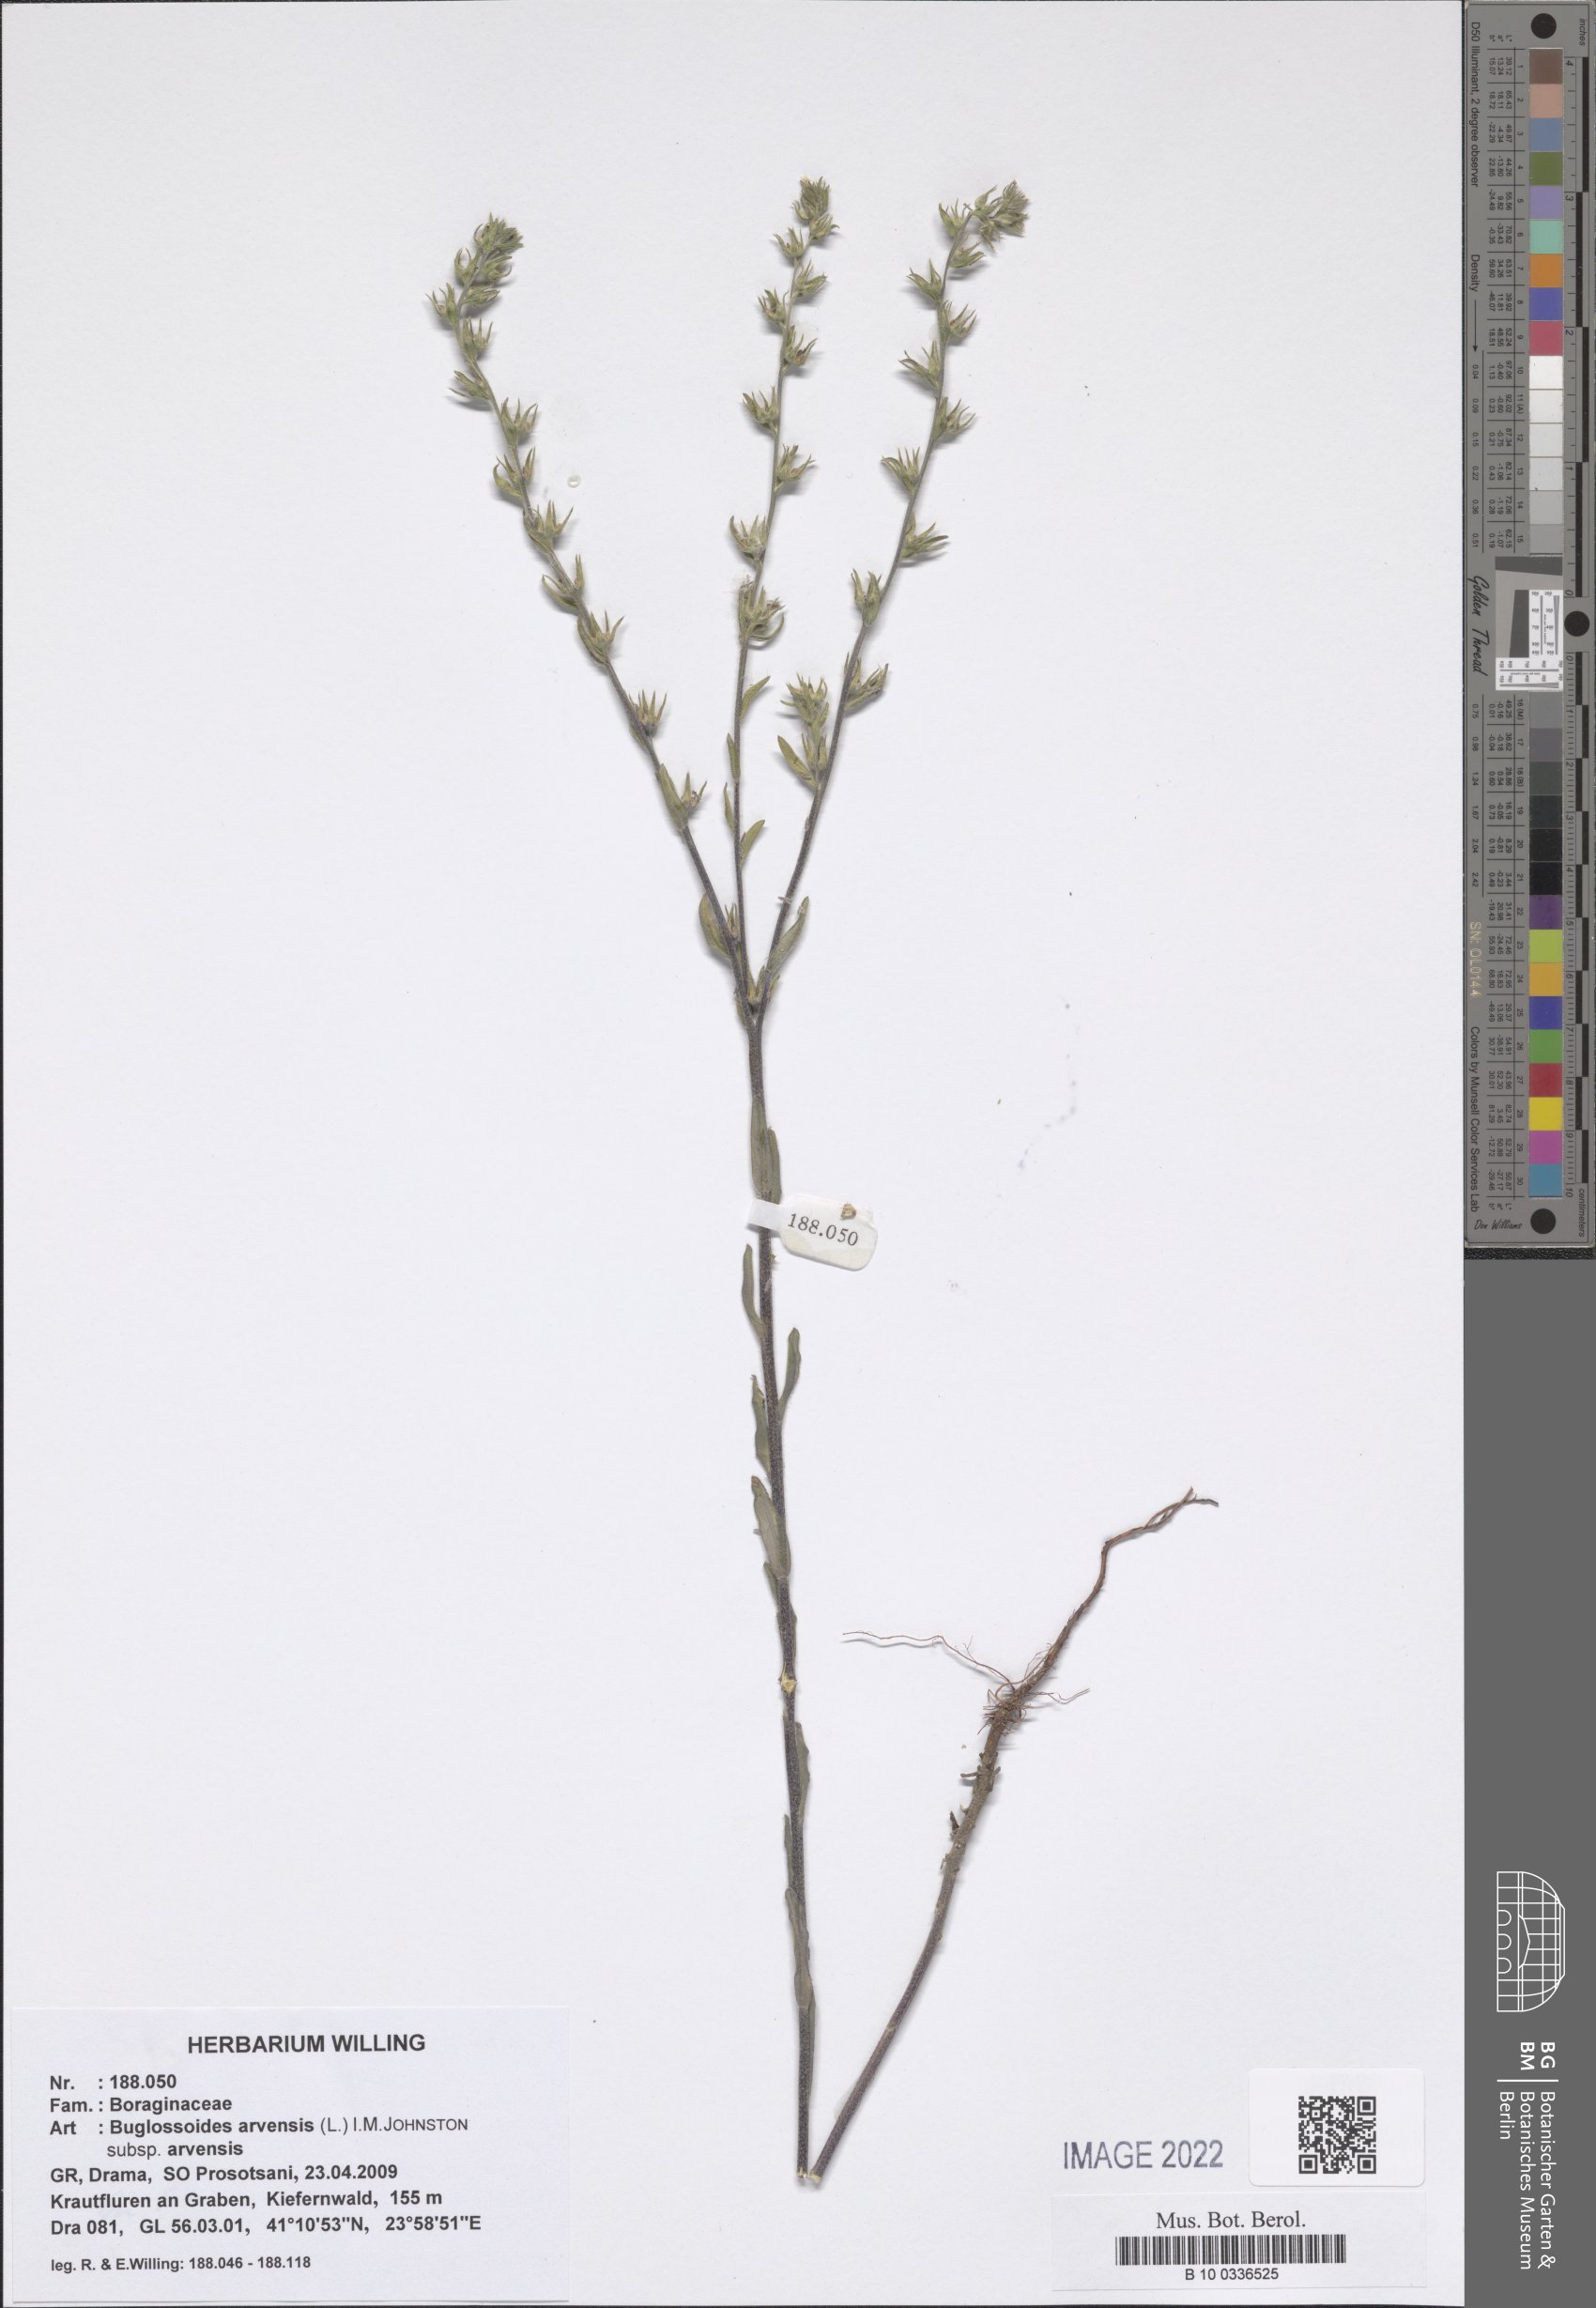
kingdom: Plantae
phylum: Tracheophyta
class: Magnoliopsida
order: Boraginales
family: Boraginaceae
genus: Buglossoides
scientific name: Buglossoides arvensis
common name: Corn gromwell
